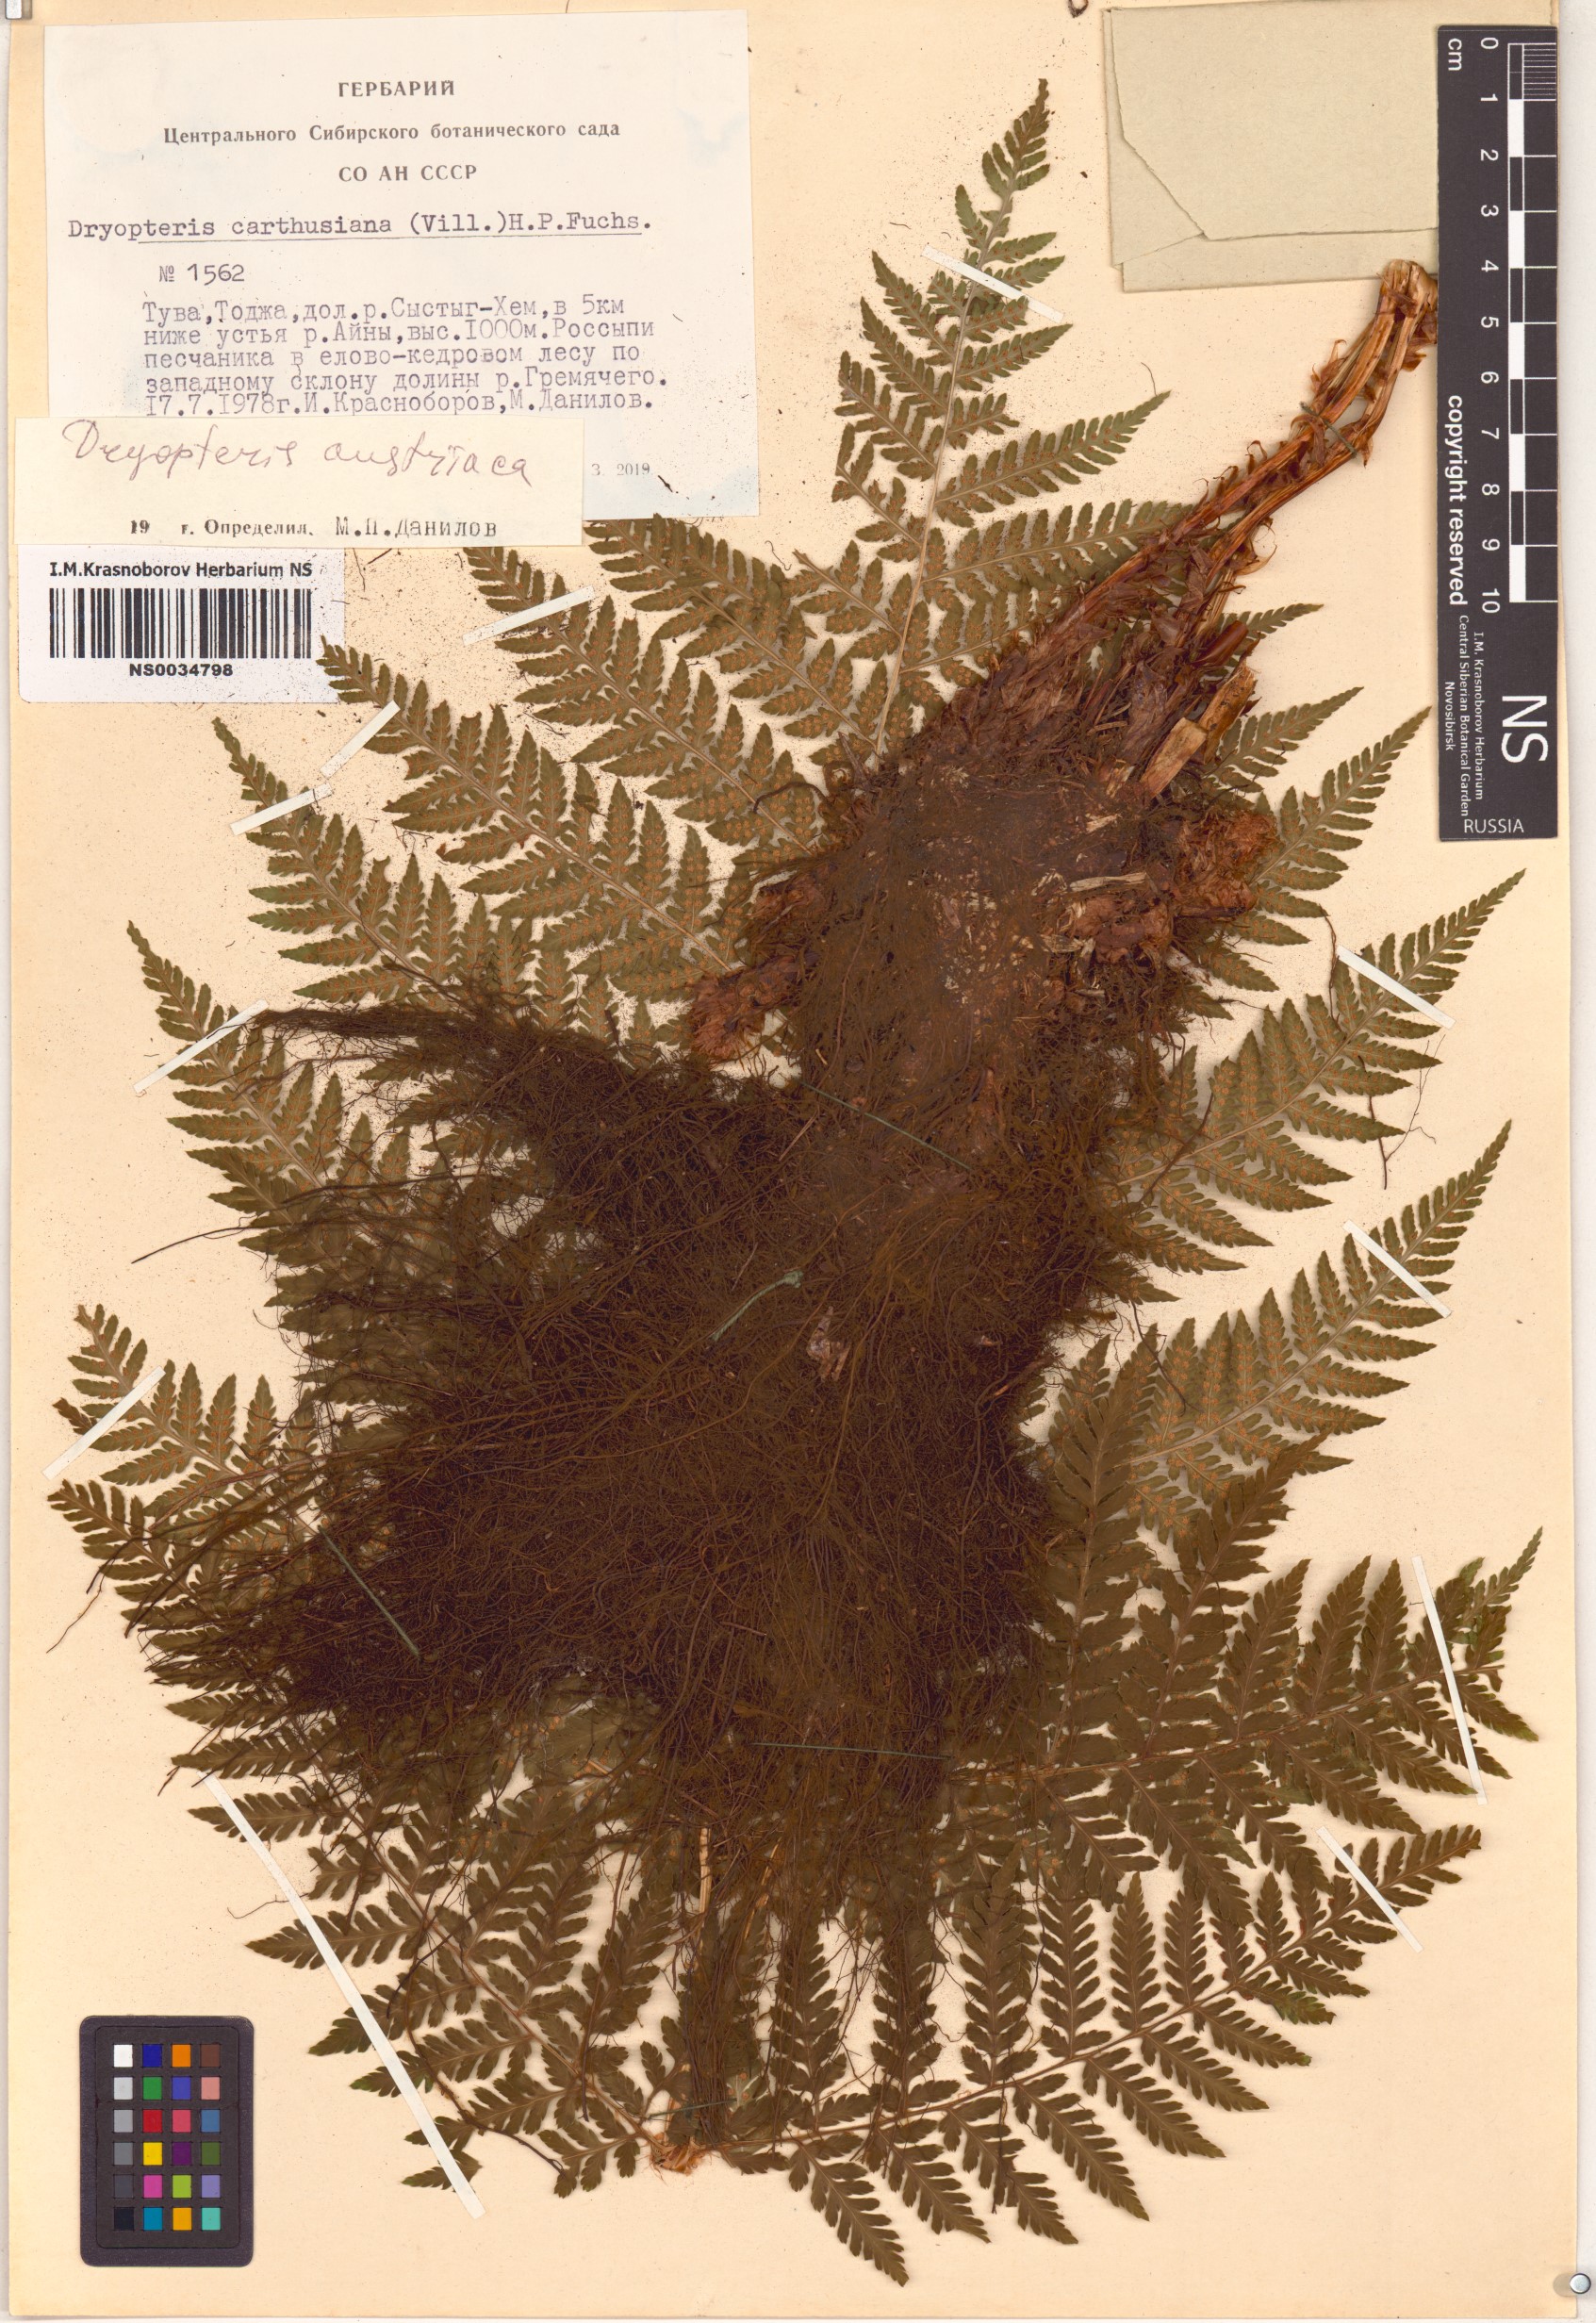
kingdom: Plantae
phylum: Tracheophyta
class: Polypodiopsida
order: Polypodiales
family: Dryopteridaceae
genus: Dryopteris
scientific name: Dryopteris dilatata
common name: Broad buckler-fern
